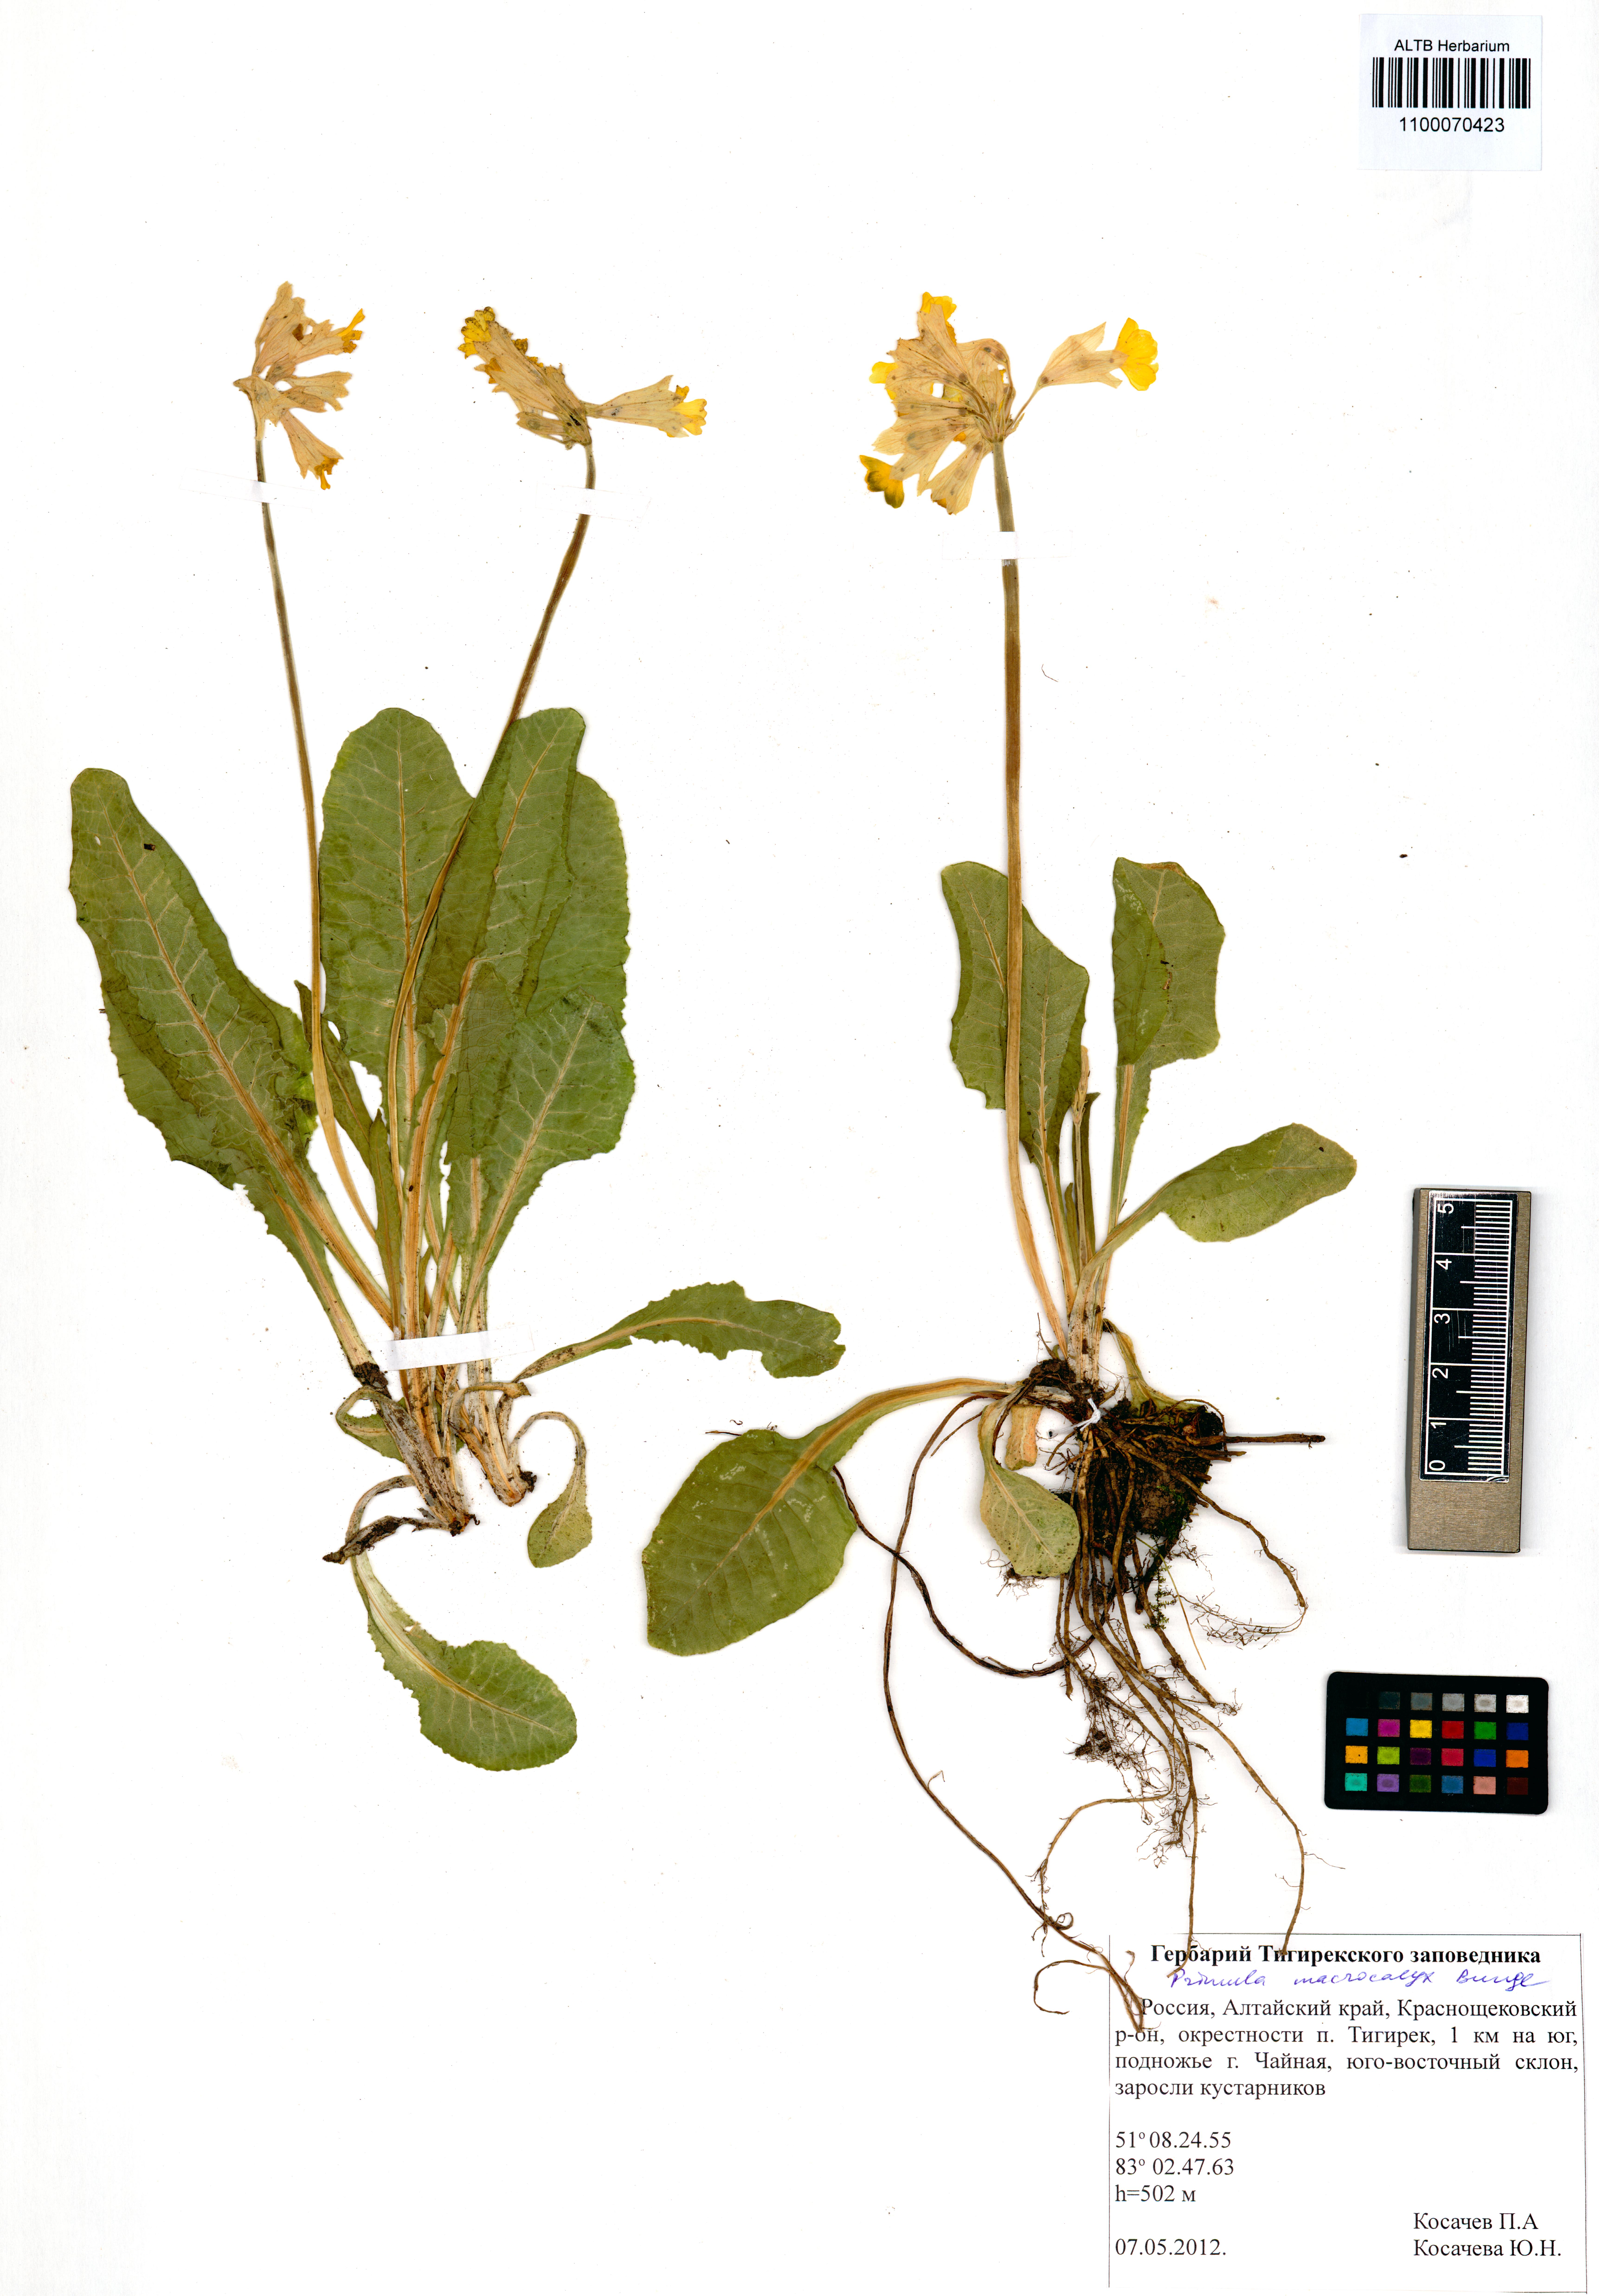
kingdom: Plantae
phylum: Tracheophyta
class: Magnoliopsida
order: Ericales
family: Primulaceae
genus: Primula
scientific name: Primula veris
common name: Cowslip
